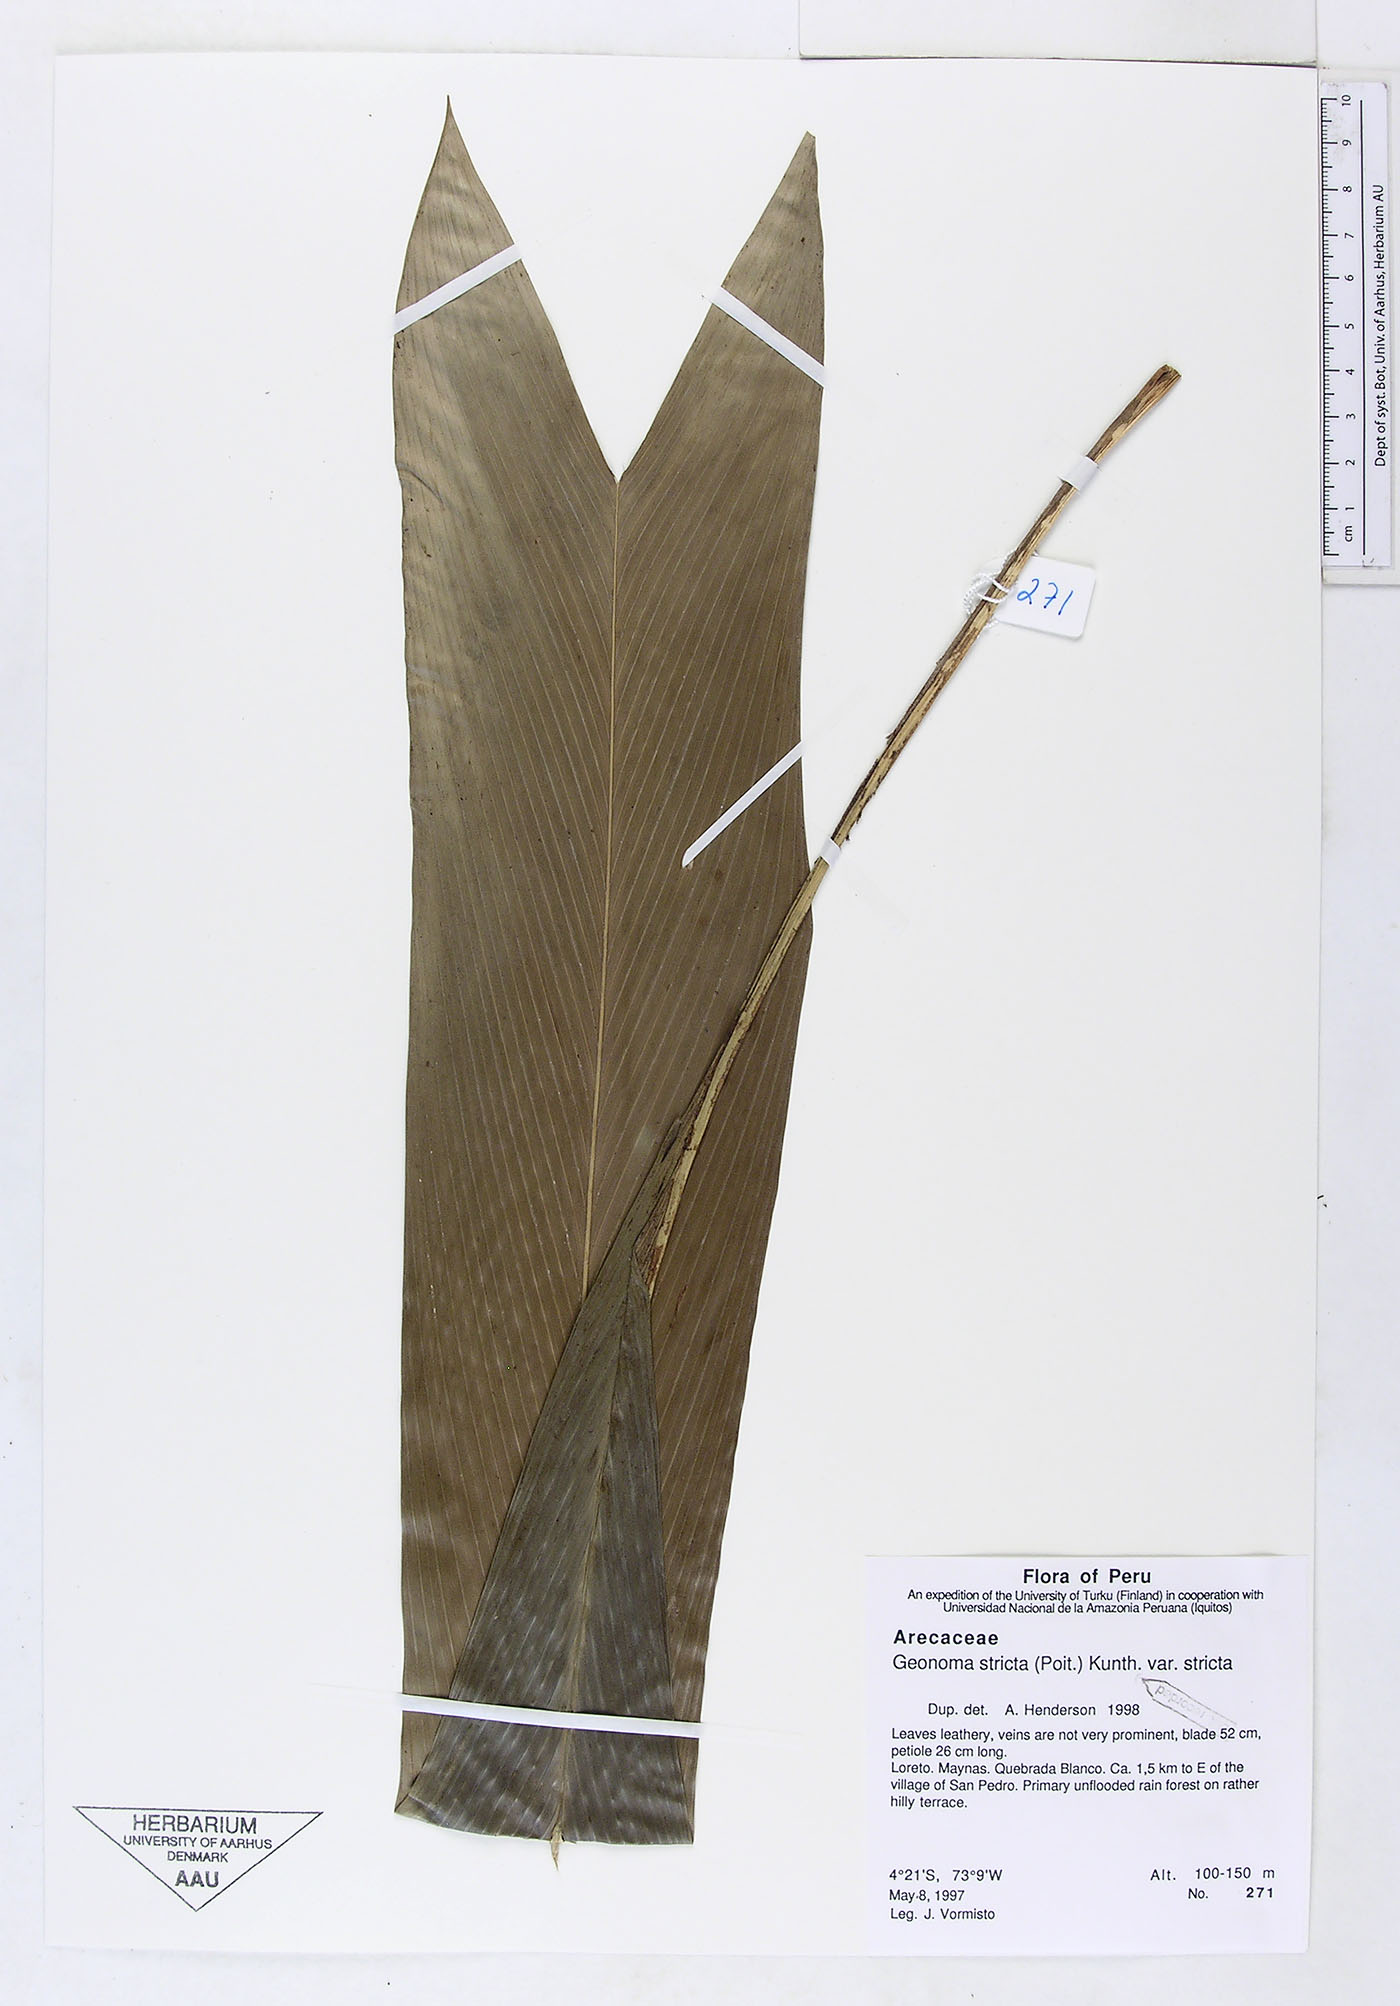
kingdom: Plantae
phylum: Tracheophyta
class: Liliopsida
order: Arecales
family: Arecaceae
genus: Geonoma
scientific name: Geonoma stricta
